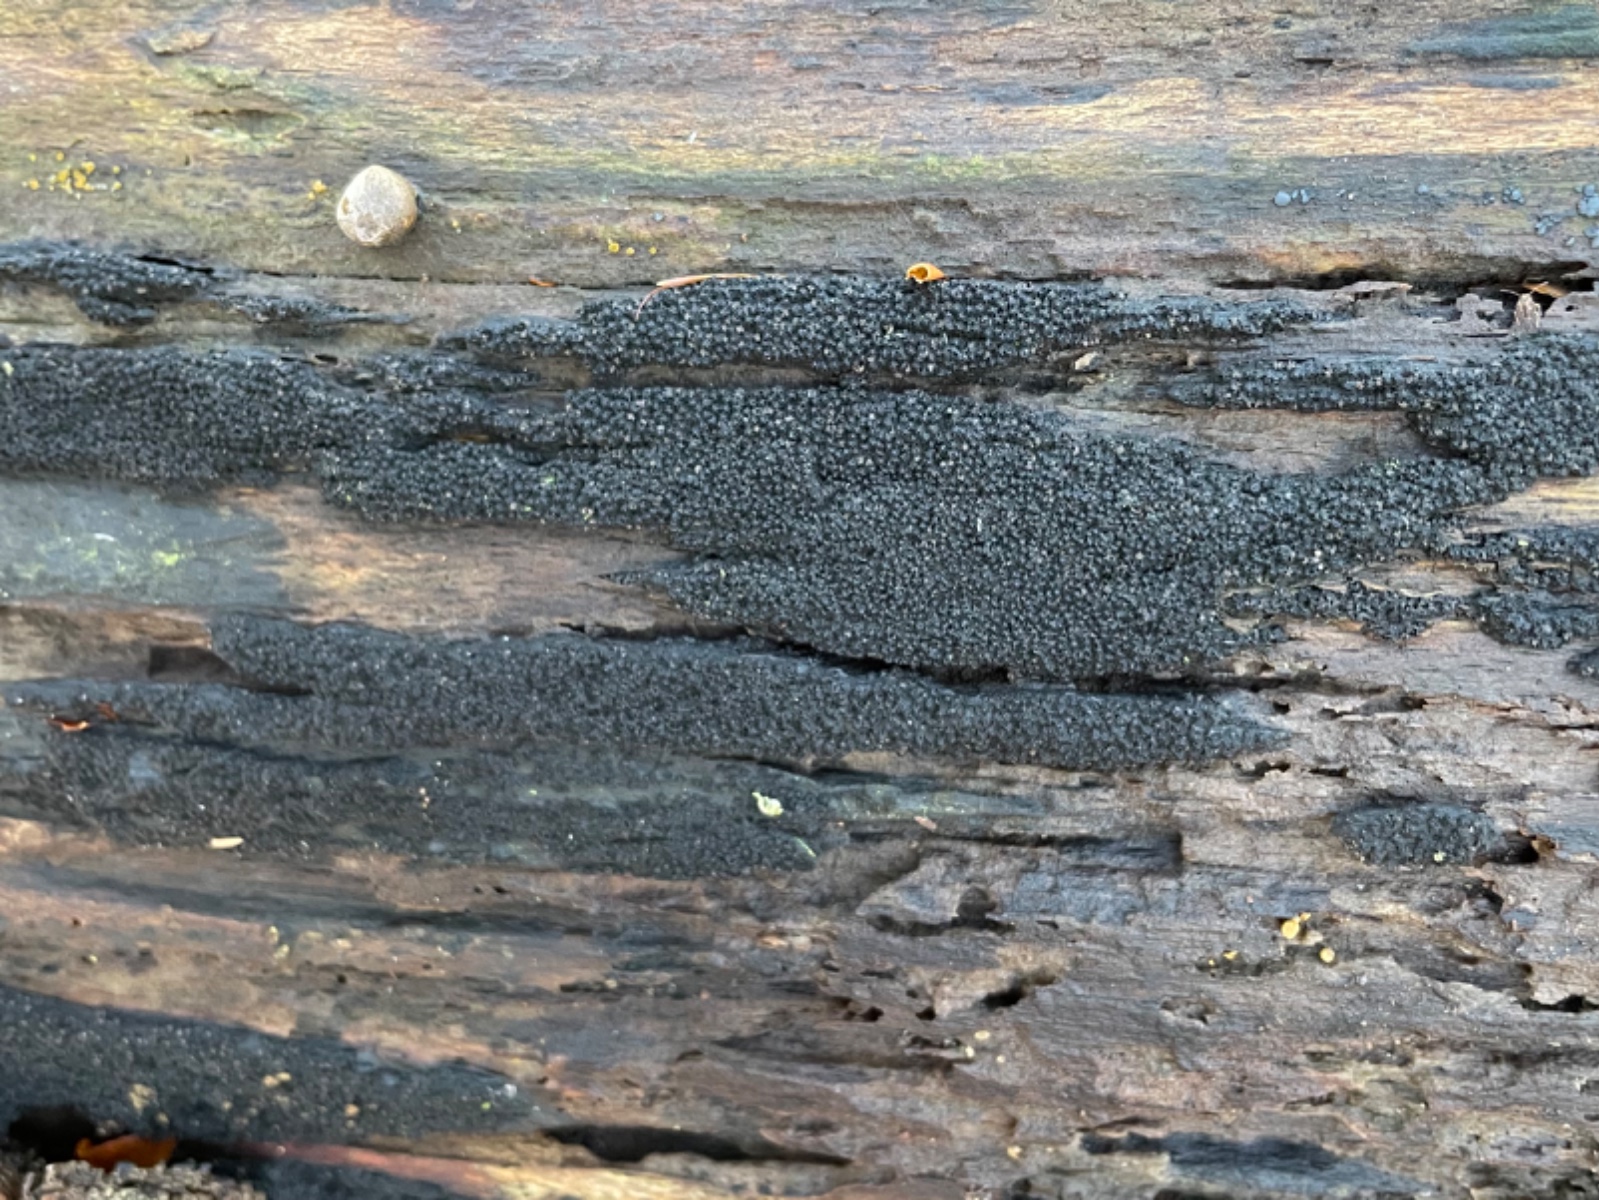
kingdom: Fungi
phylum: Ascomycota
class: Sordariomycetes
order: Xylariales
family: Diatrypaceae
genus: Eutypa
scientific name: Eutypa spinosa
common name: grov kulskorpe
